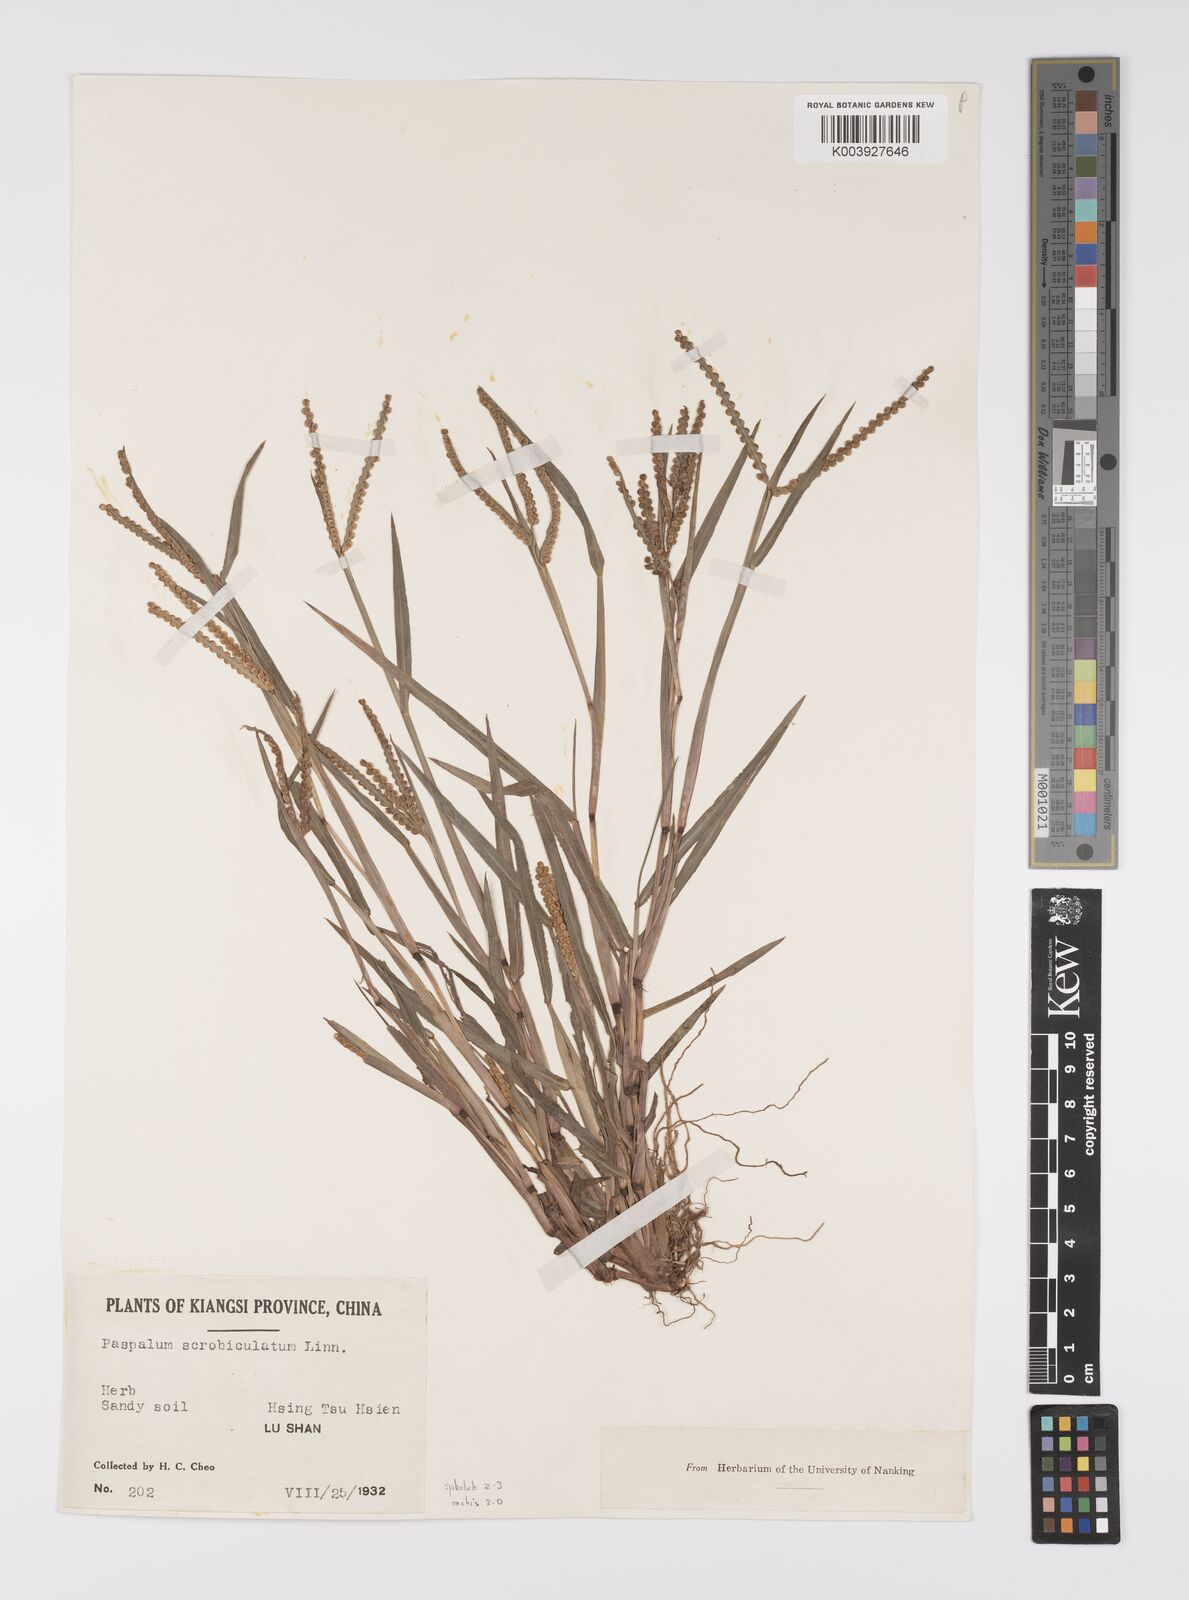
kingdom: Plantae
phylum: Tracheophyta
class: Liliopsida
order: Poales
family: Poaceae
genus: Paspalum
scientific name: Paspalum scrobiculatum
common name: Kodo millet
